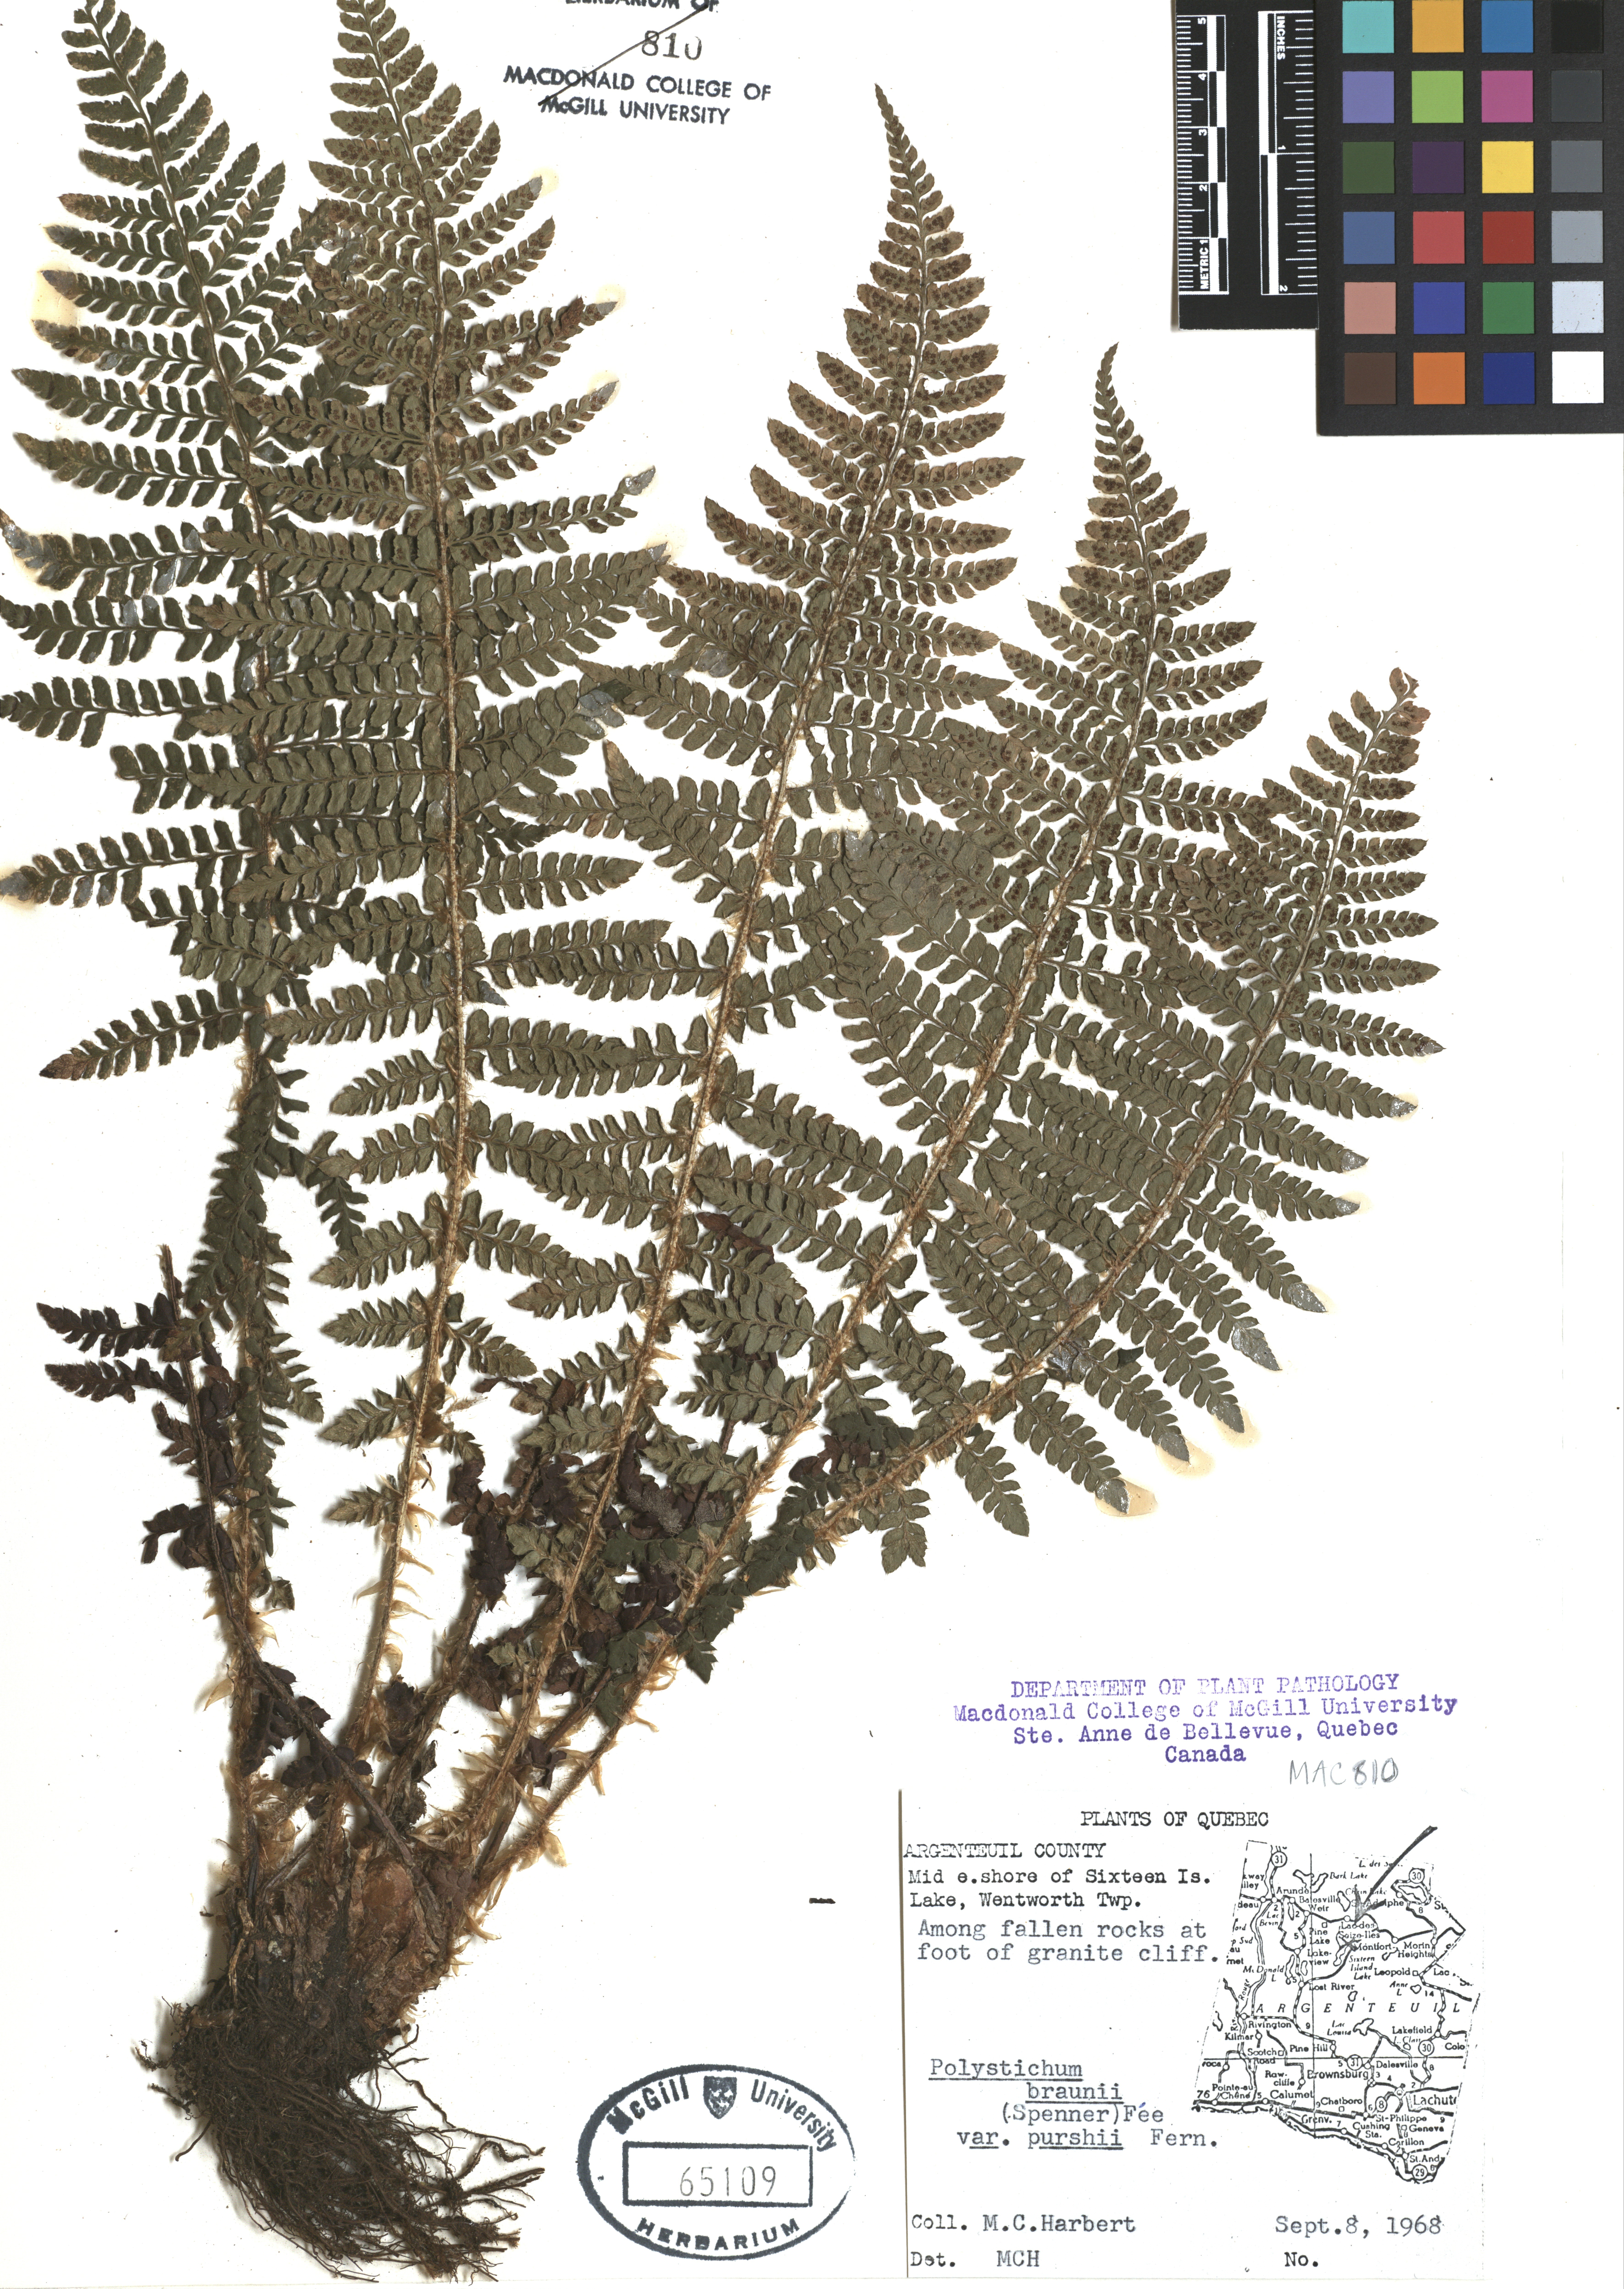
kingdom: Plantae
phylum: Tracheophyta
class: Polypodiopsida
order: Polypodiales
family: Dryopteridaceae
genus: Polystichum
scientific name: Polystichum braunii
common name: Braun's holly fern
